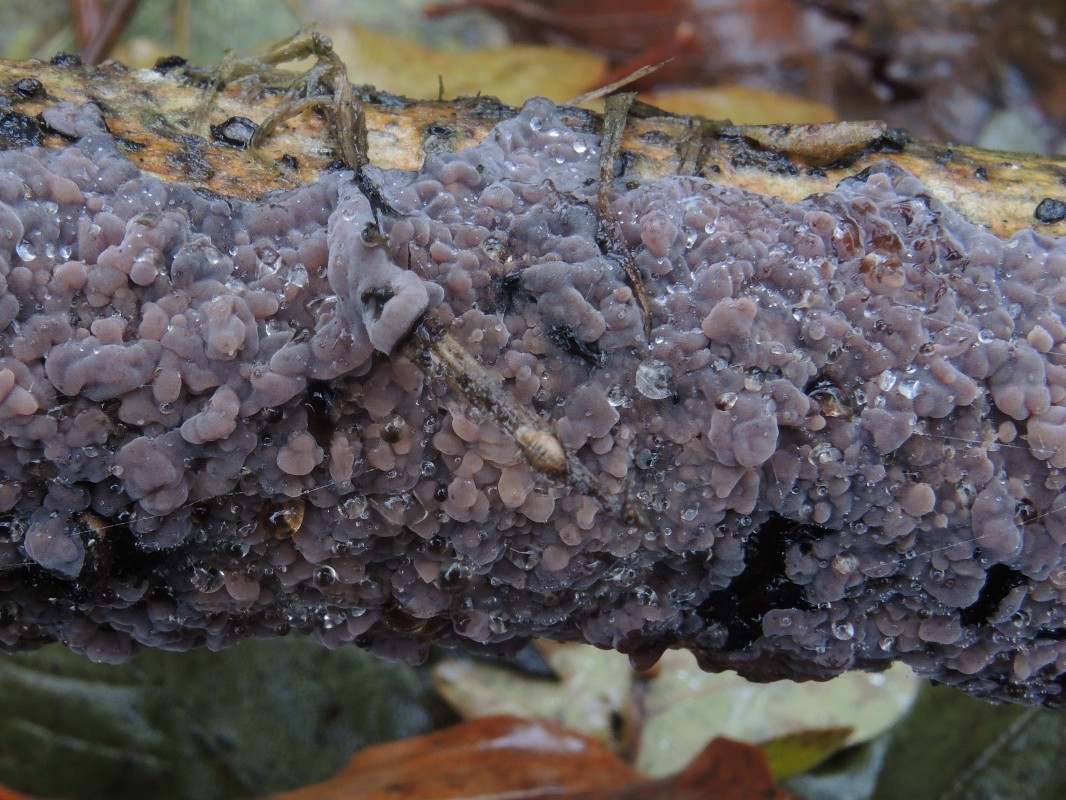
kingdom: Fungi
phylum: Basidiomycota
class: Agaricomycetes
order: Russulales
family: Peniophoraceae
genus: Peniophora
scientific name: Peniophora quercina
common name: ege-voksskind
